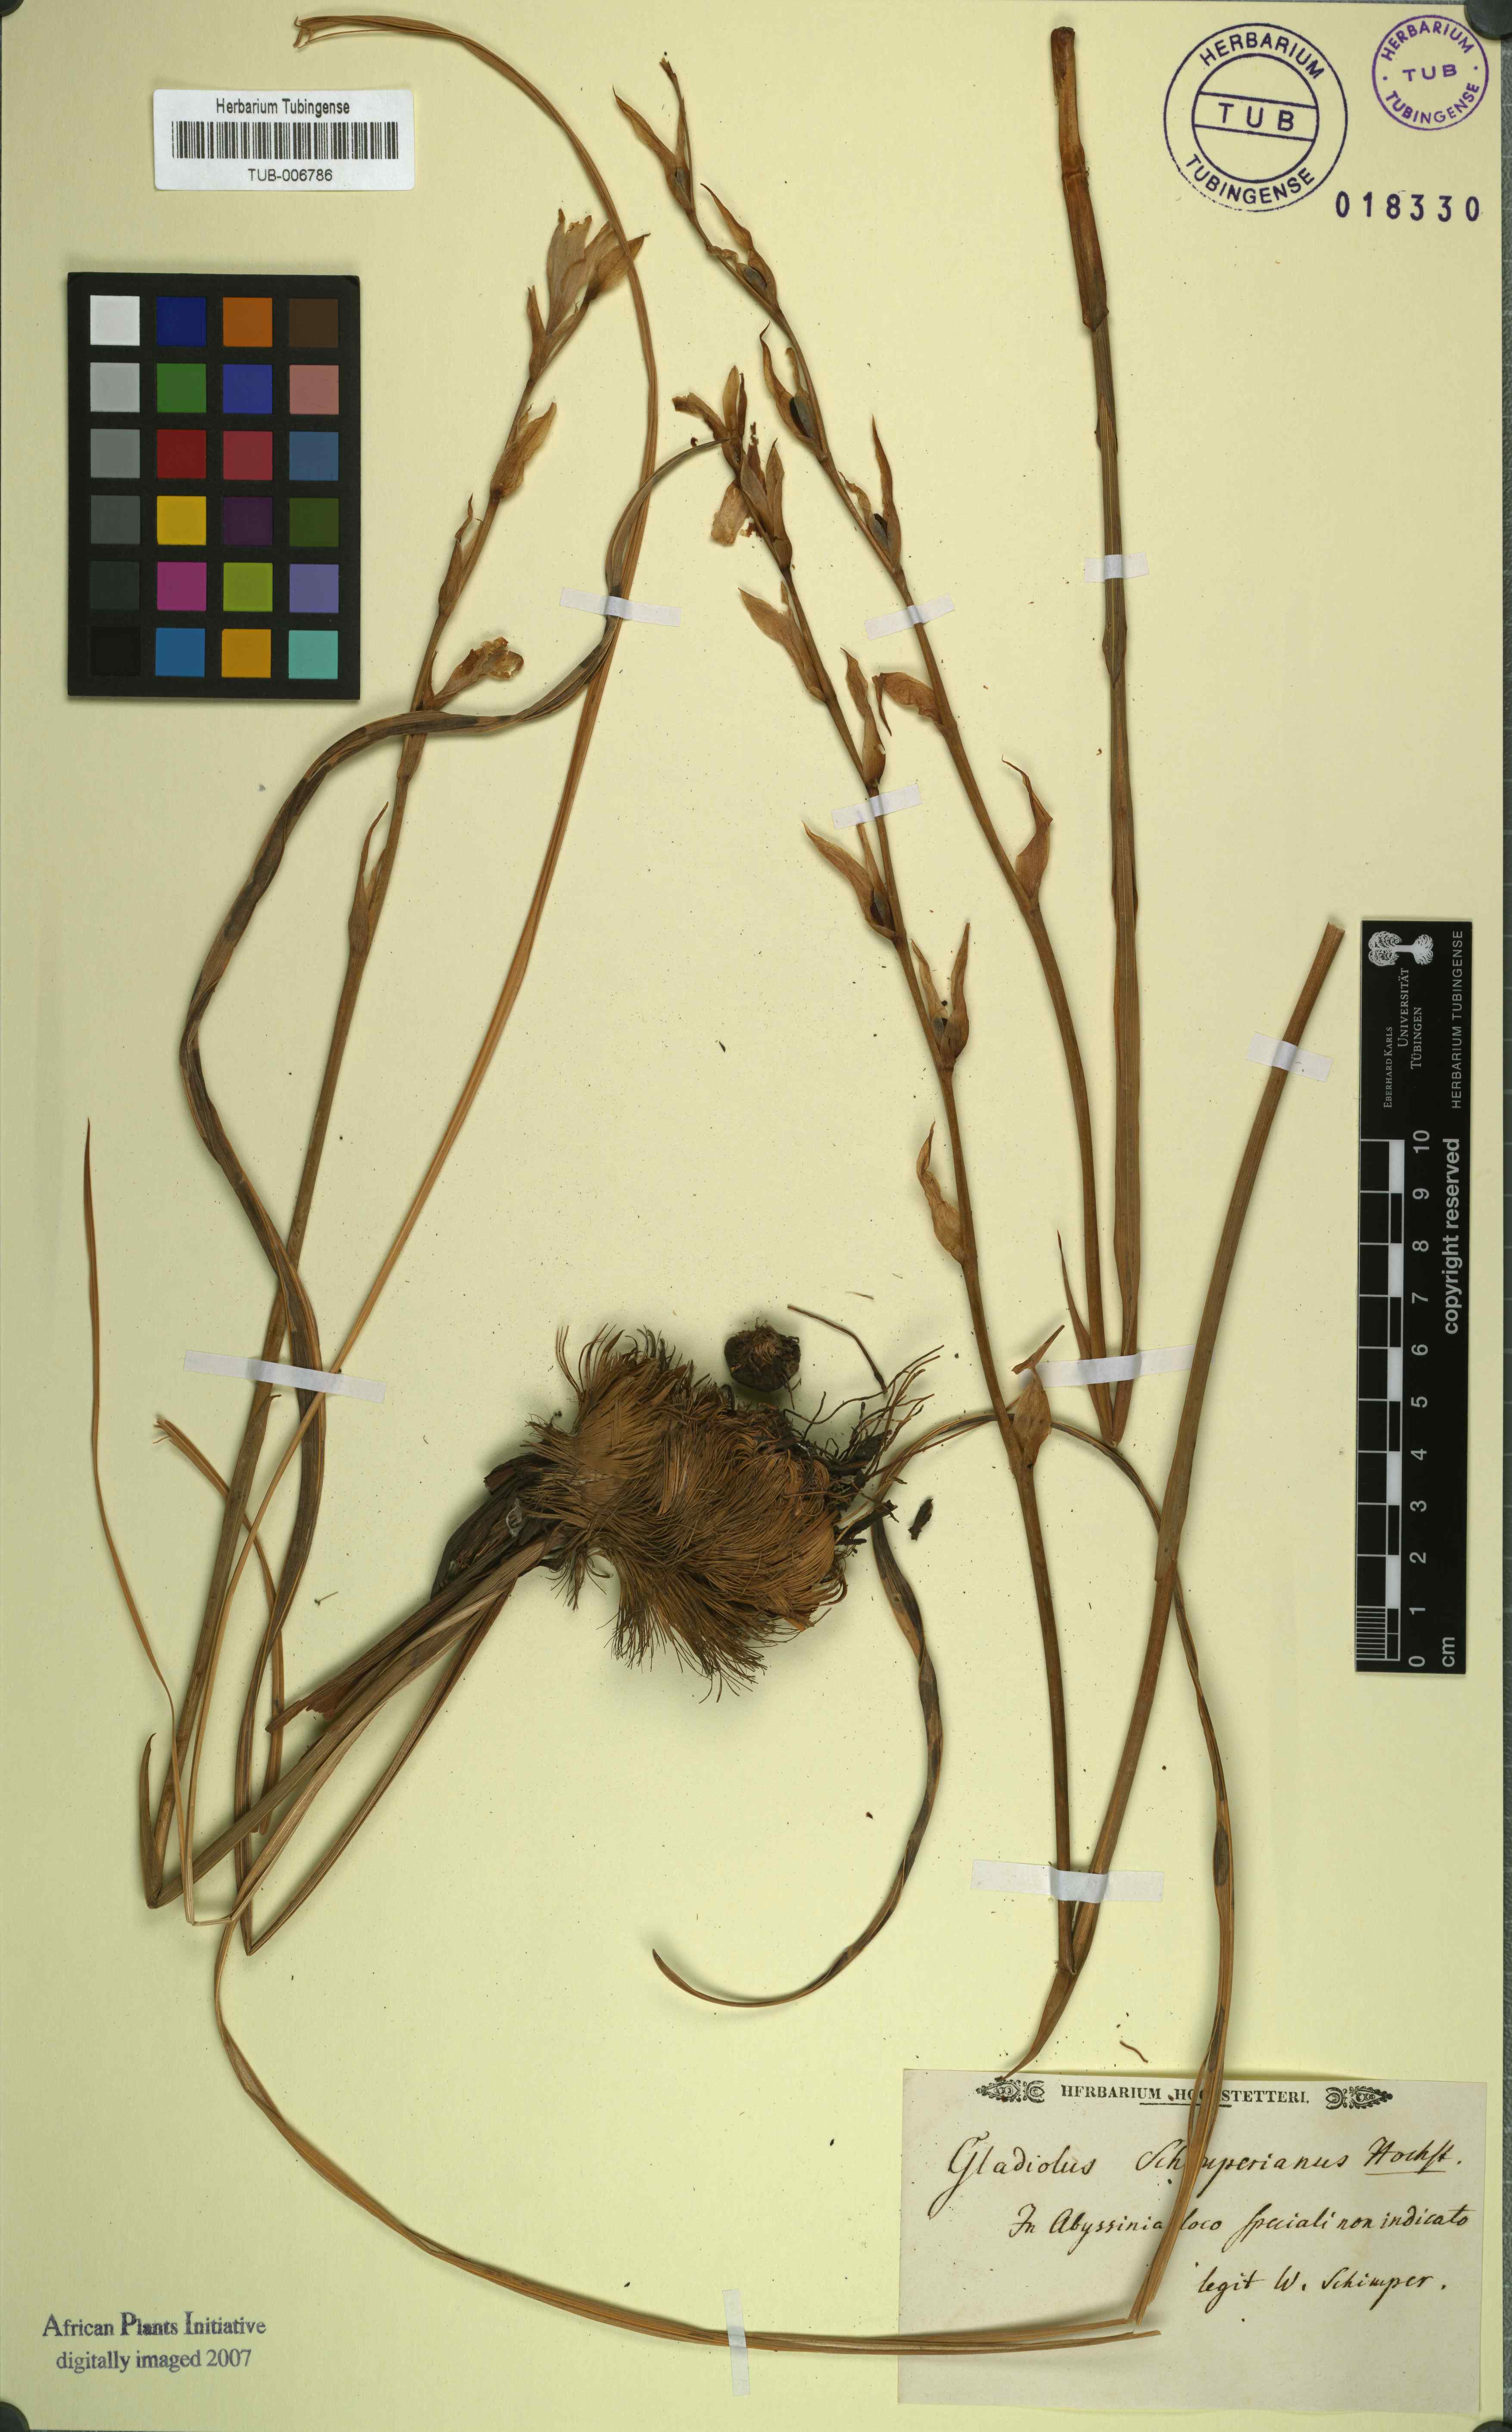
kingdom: Plantae
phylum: Tracheophyta
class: Liliopsida
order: Asparagales
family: Iridaceae
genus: Gladiolus
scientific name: Gladiolus dalenii
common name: Cornflag
